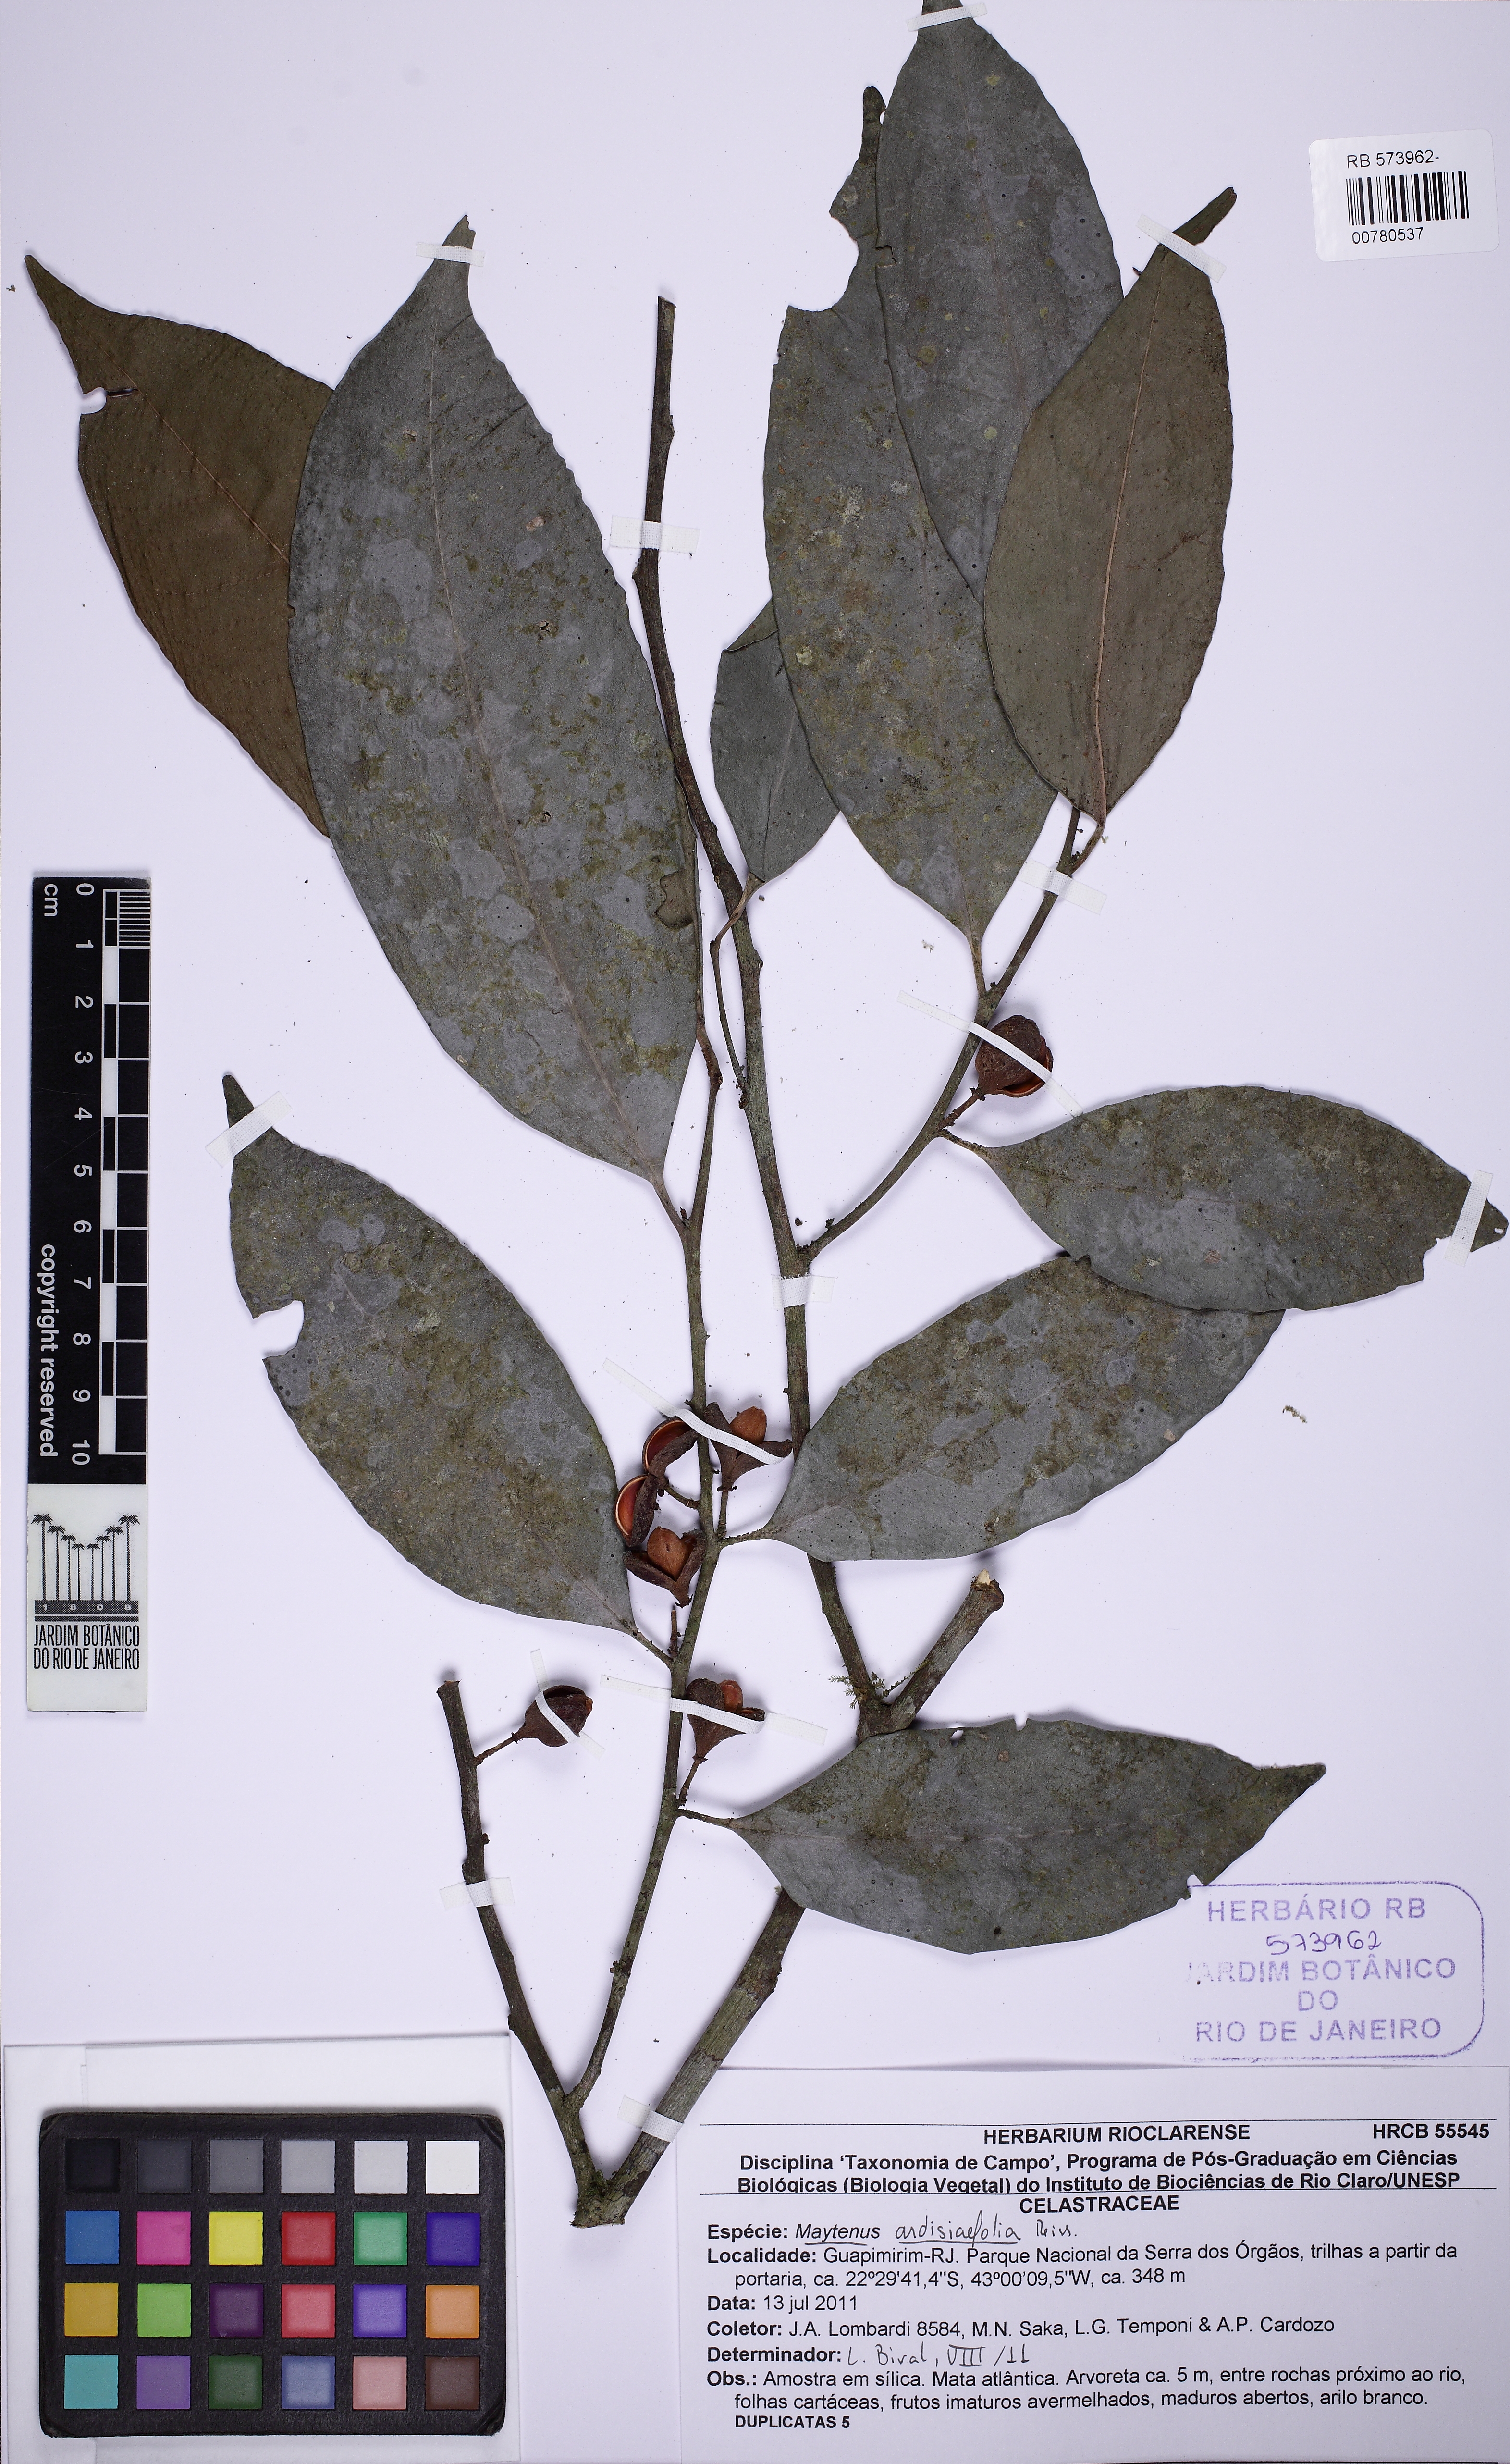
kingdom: Plantae
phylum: Tracheophyta
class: Magnoliopsida
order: Celastrales
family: Celastraceae
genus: Monteverdia
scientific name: Monteverdia ardisiifolia
